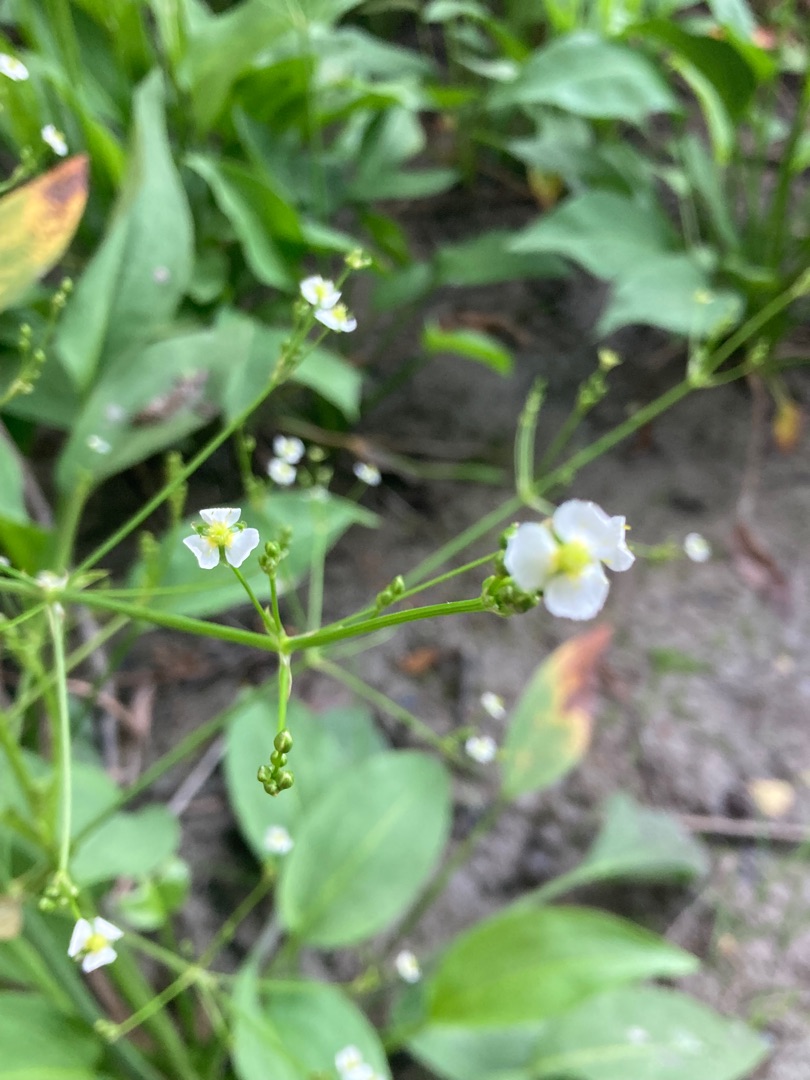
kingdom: Plantae
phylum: Tracheophyta
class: Liliopsida
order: Alismatales
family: Alismataceae
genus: Alisma
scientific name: Alisma plantago-aquatica
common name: Vejbred-skeblad
